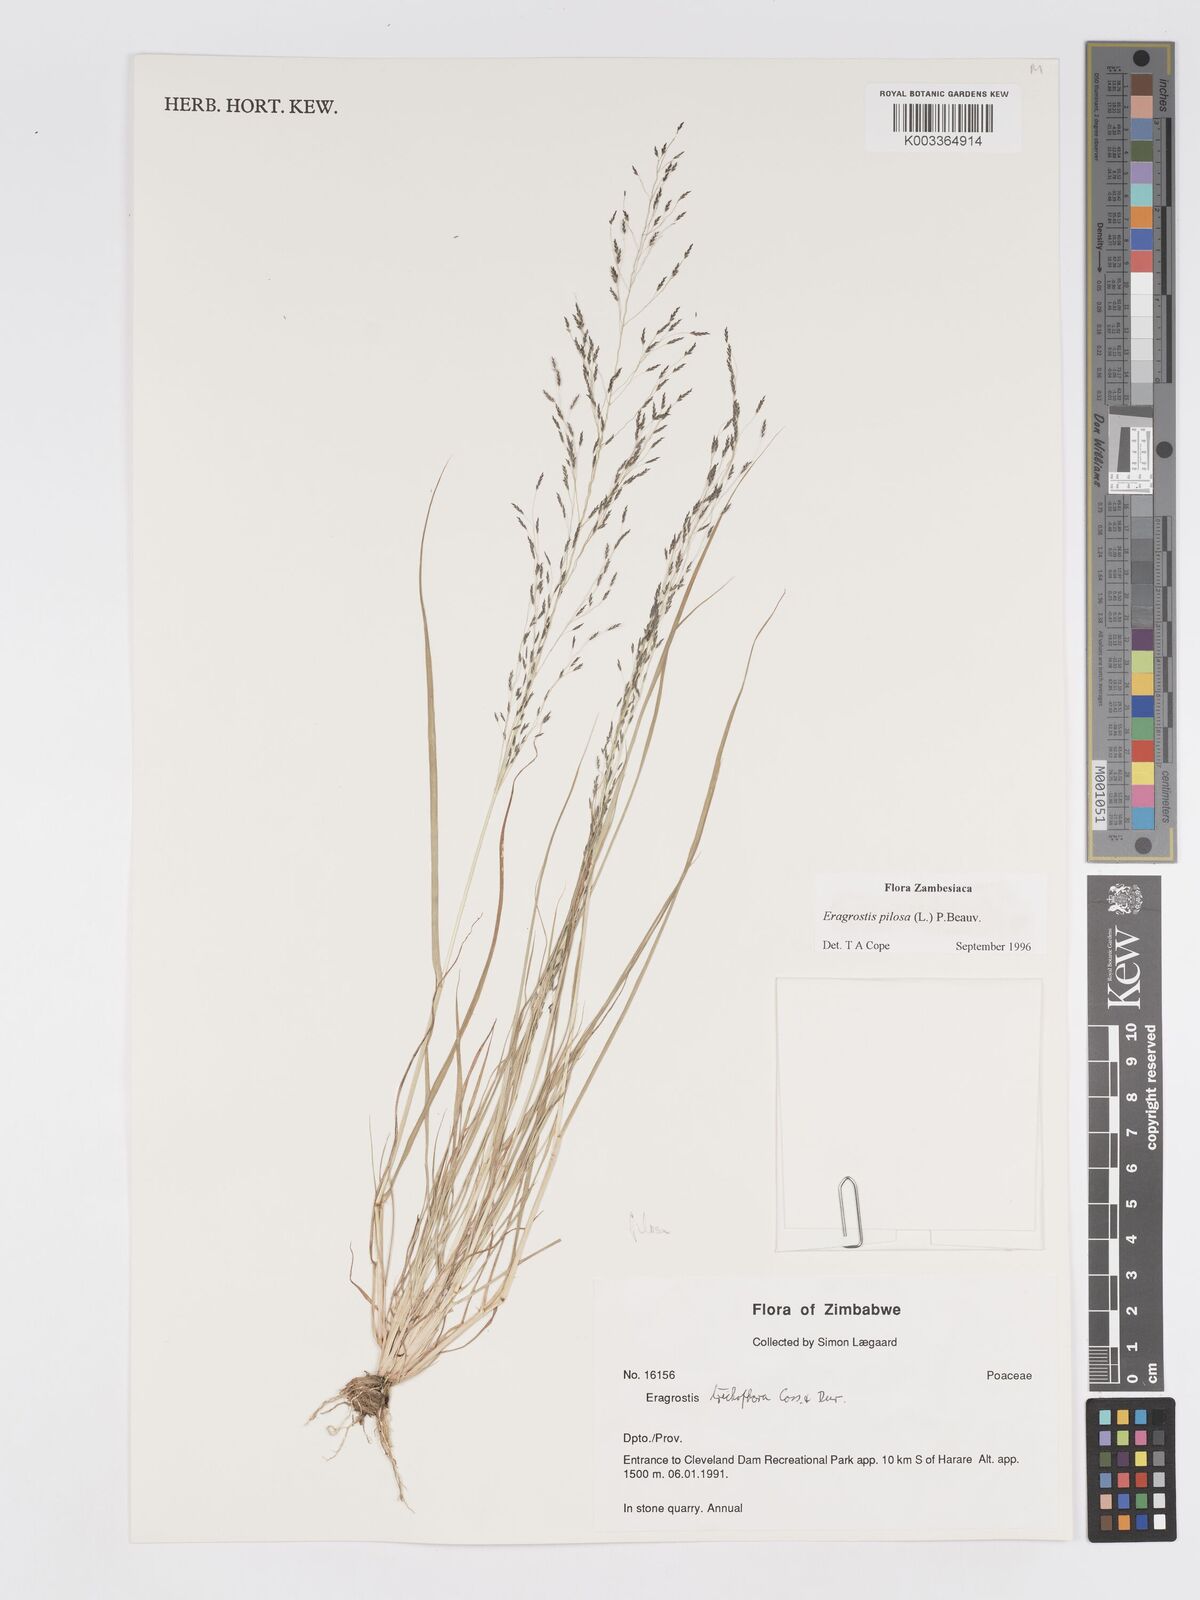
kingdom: Plantae
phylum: Tracheophyta
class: Liliopsida
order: Poales
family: Poaceae
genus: Eragrostis
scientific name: Eragrostis pilosa
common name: Indian lovegrass
